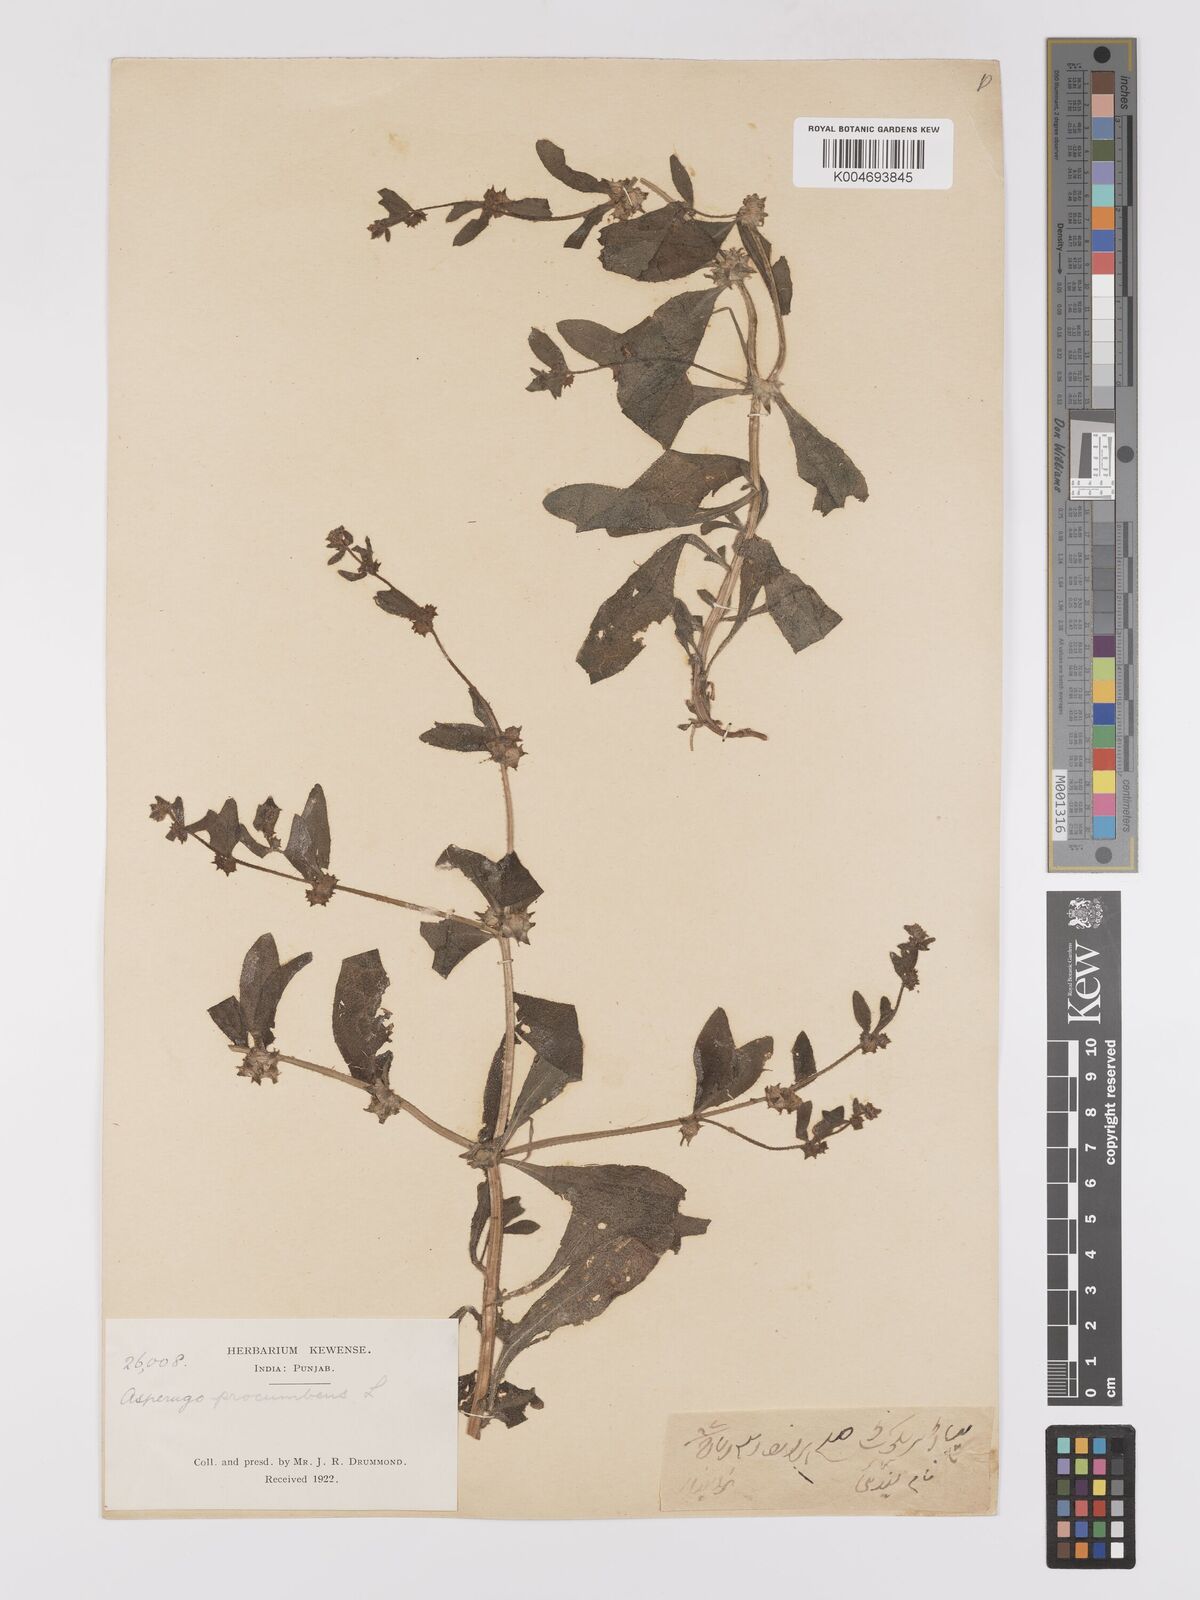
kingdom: Plantae
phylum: Tracheophyta
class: Magnoliopsida
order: Boraginales
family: Boraginaceae
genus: Asperugo
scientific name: Asperugo procumbens
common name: Madwort
